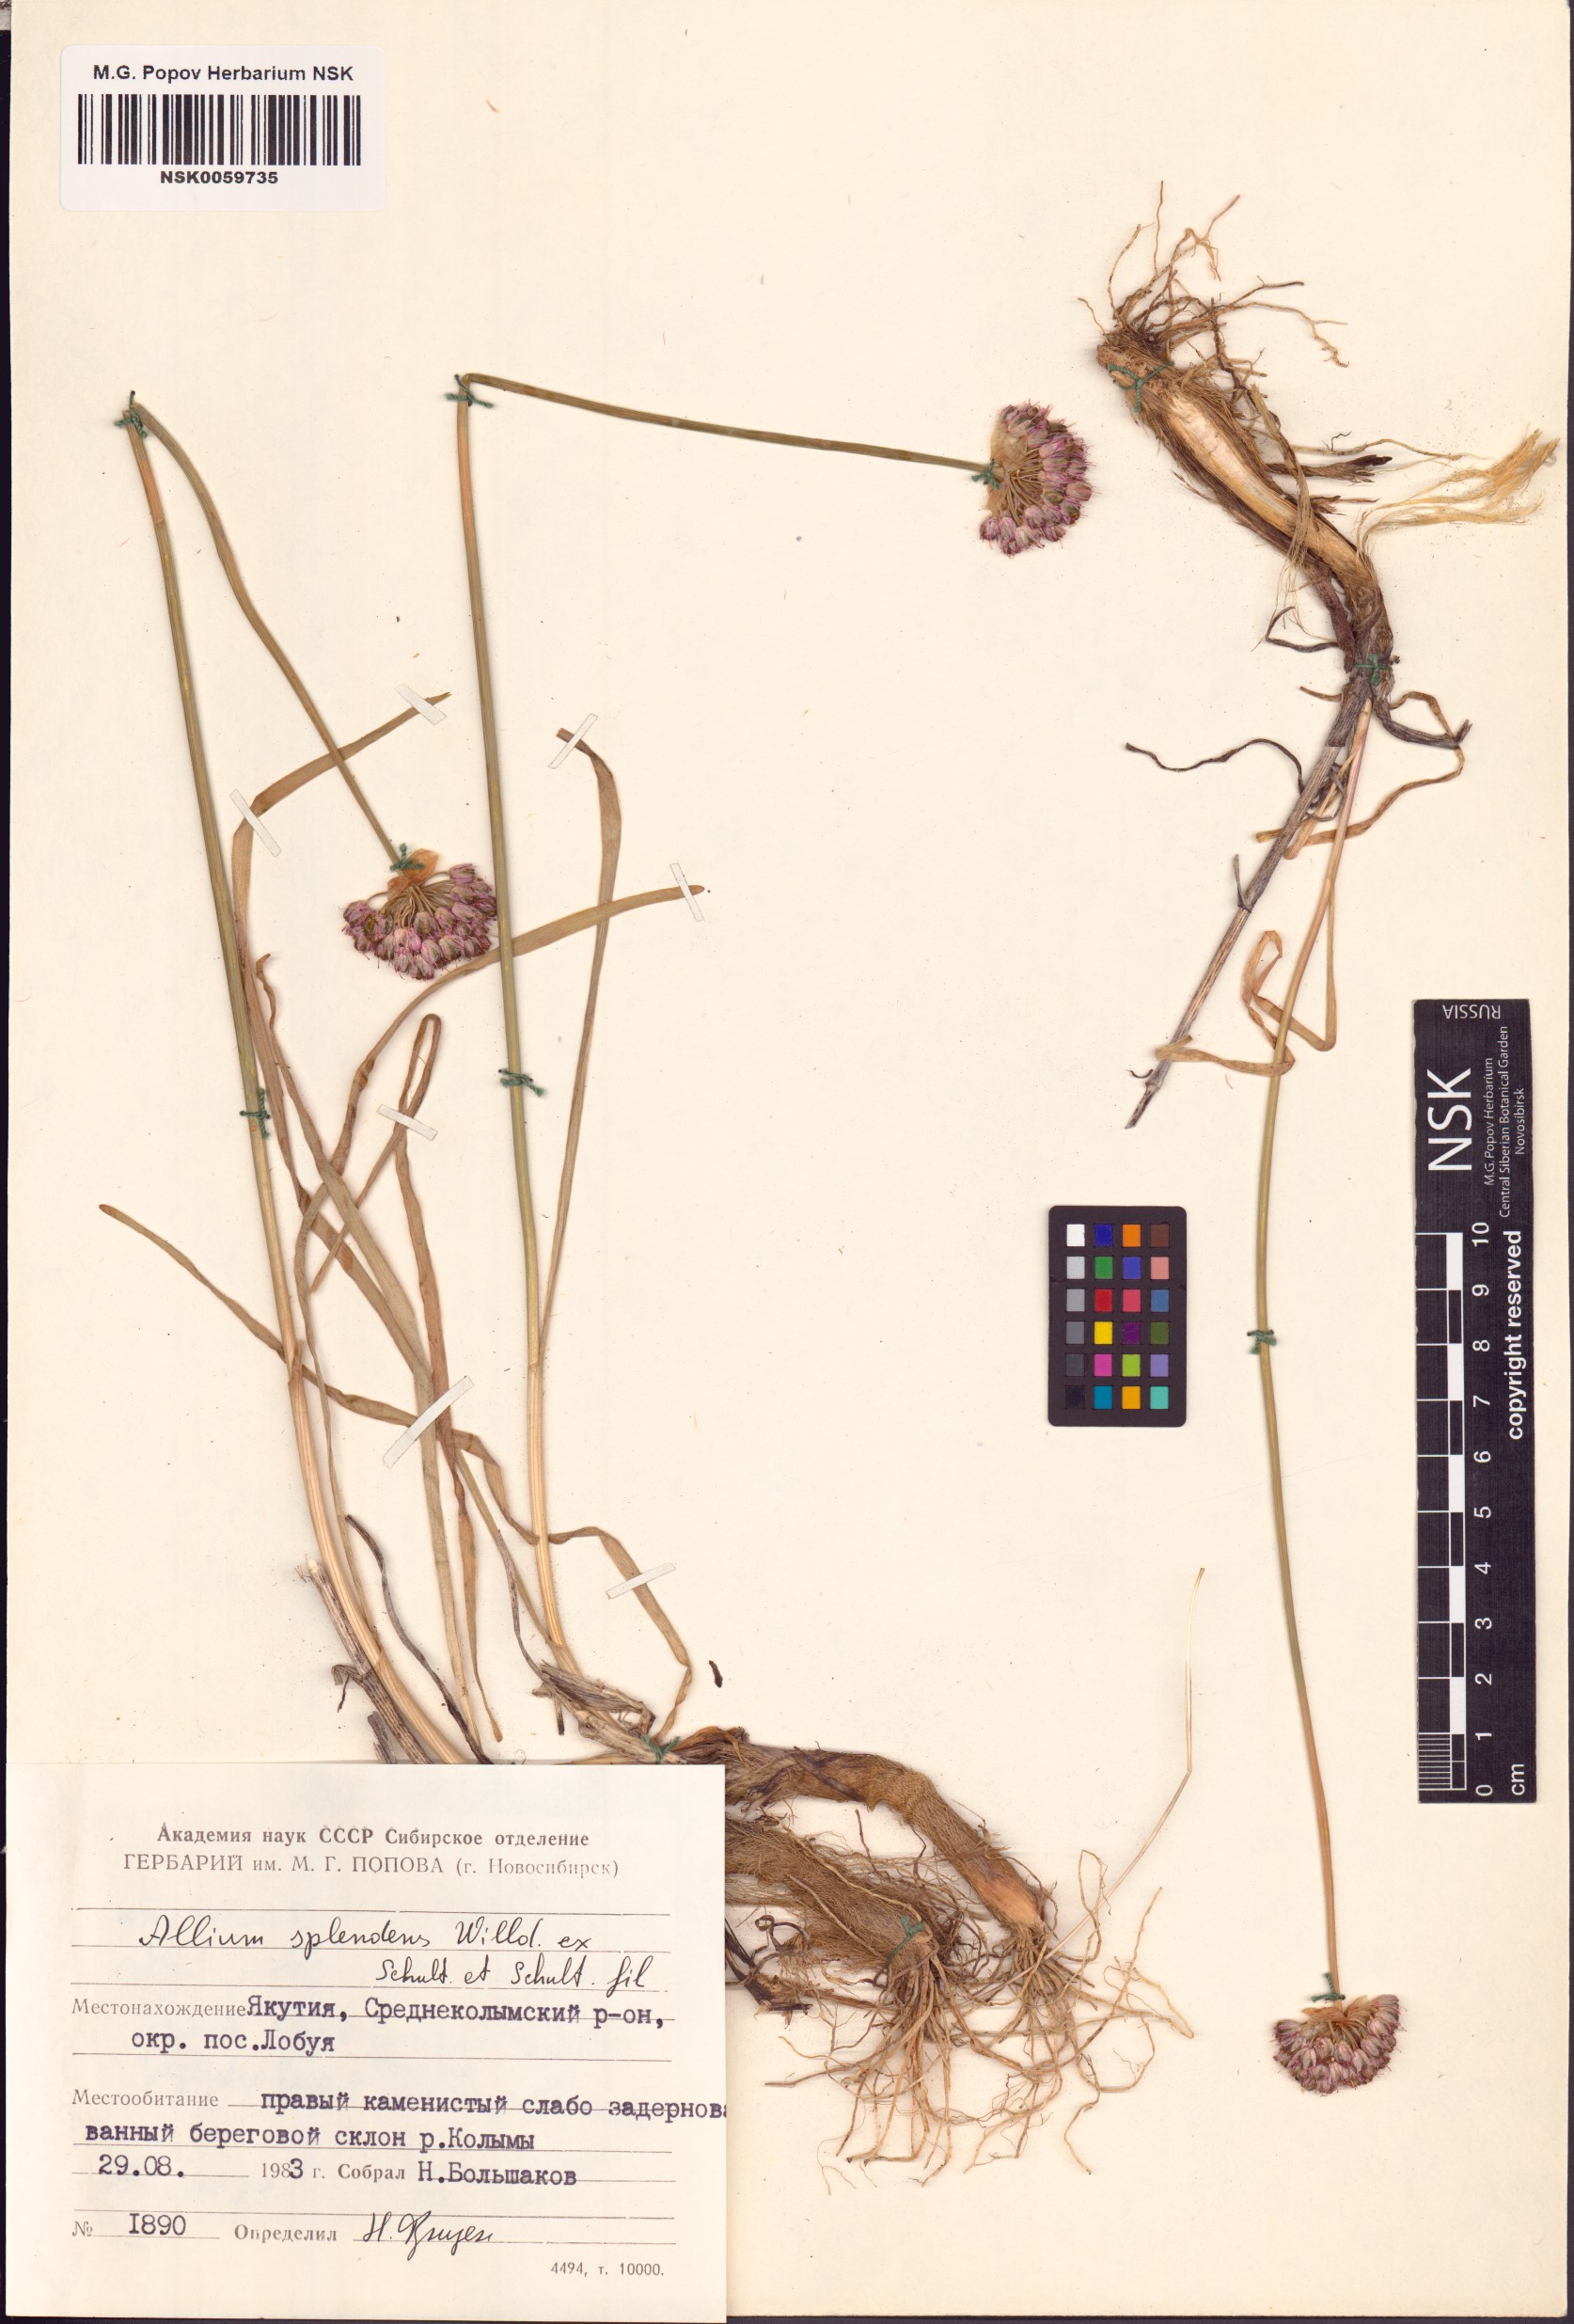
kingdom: Plantae
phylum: Tracheophyta
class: Liliopsida
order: Asparagales
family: Amaryllidaceae
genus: Allium
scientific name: Allium splendens
